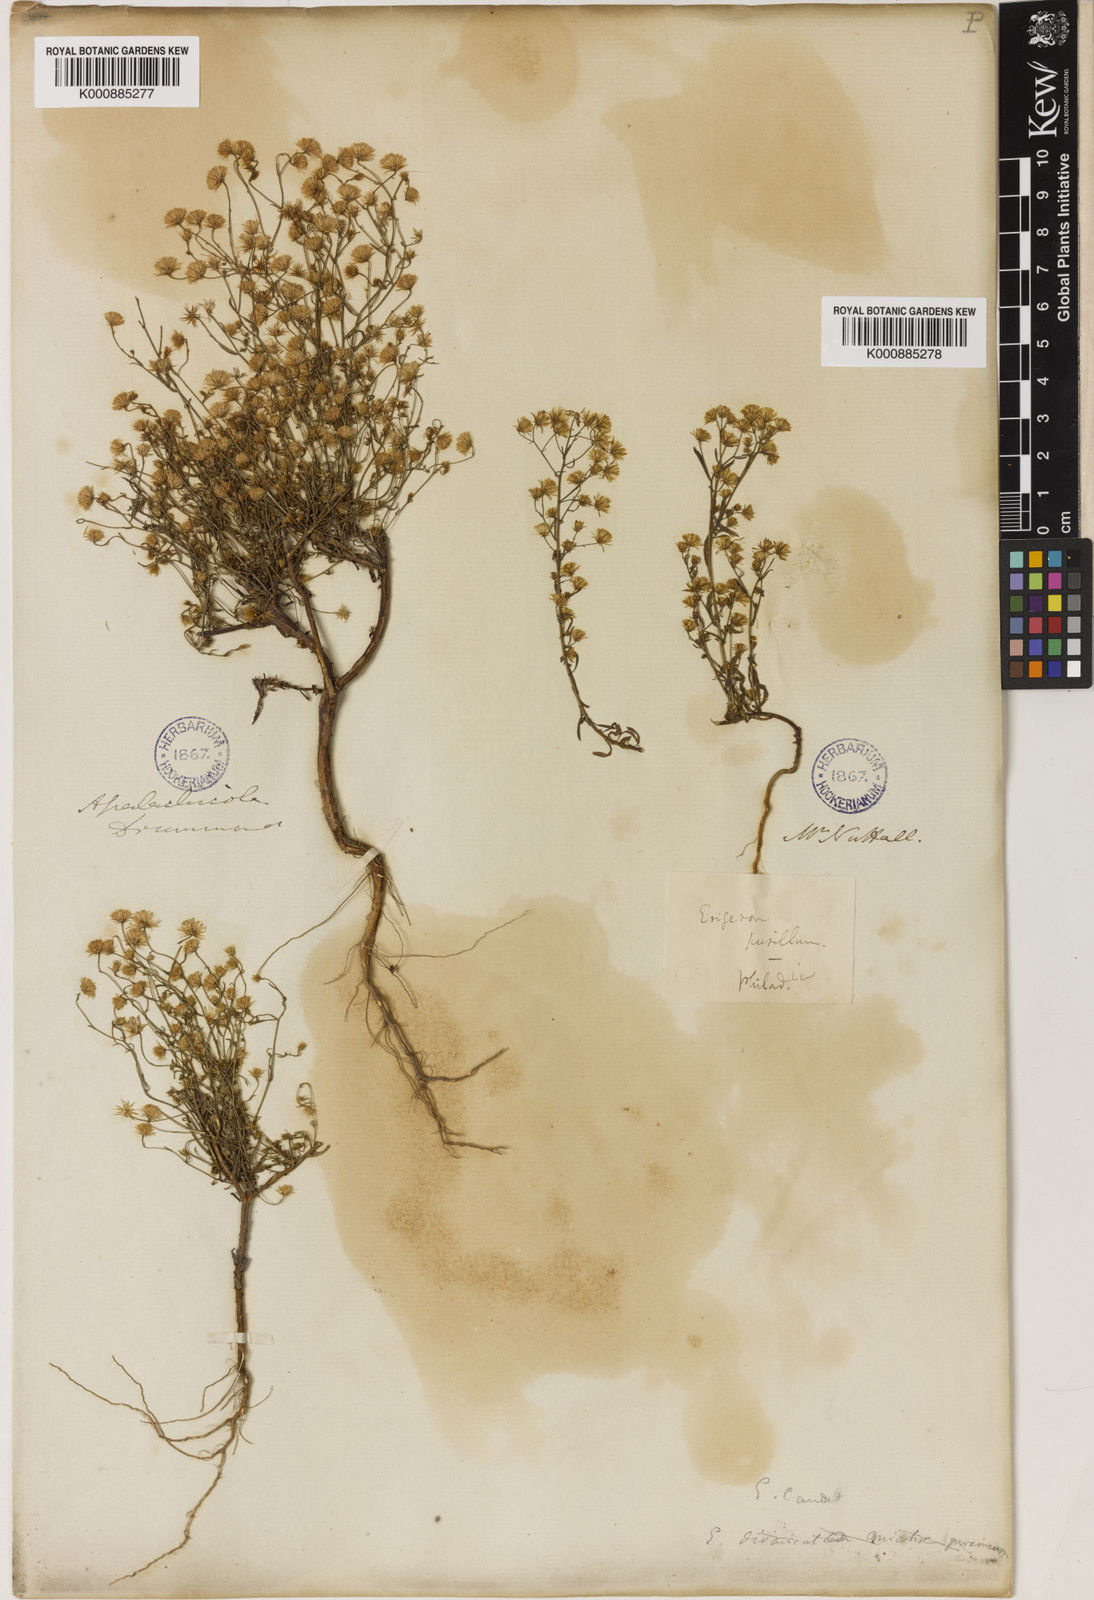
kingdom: Plantae
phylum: Tracheophyta
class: Magnoliopsida
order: Asterales
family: Asteraceae
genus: Erigeron
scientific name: Erigeron Conyza pusilla
